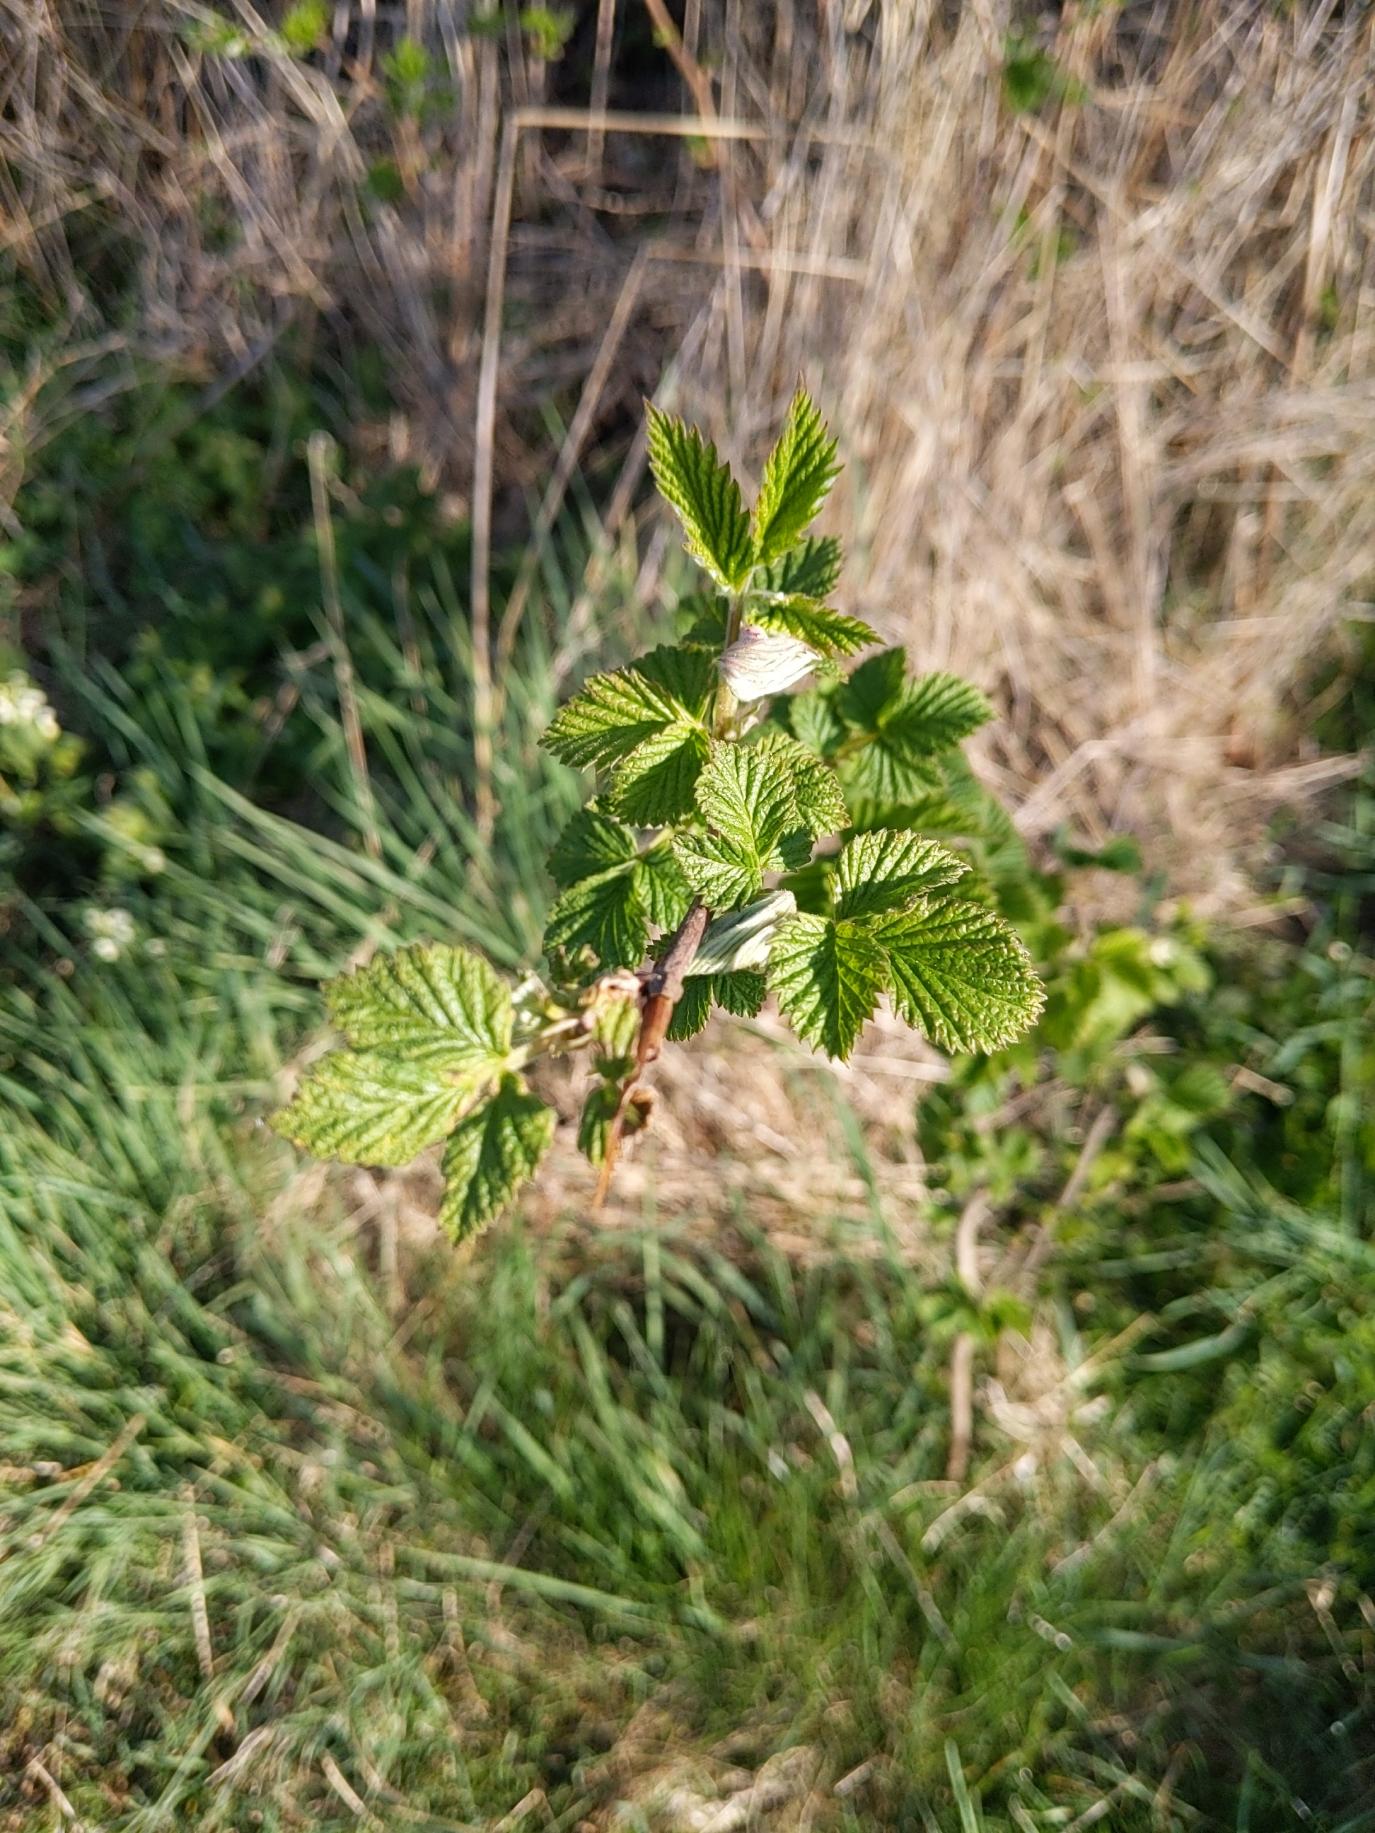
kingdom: Plantae
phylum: Tracheophyta
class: Magnoliopsida
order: Rosales
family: Rosaceae
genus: Rubus
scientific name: Rubus idaeus
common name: Hindbær
